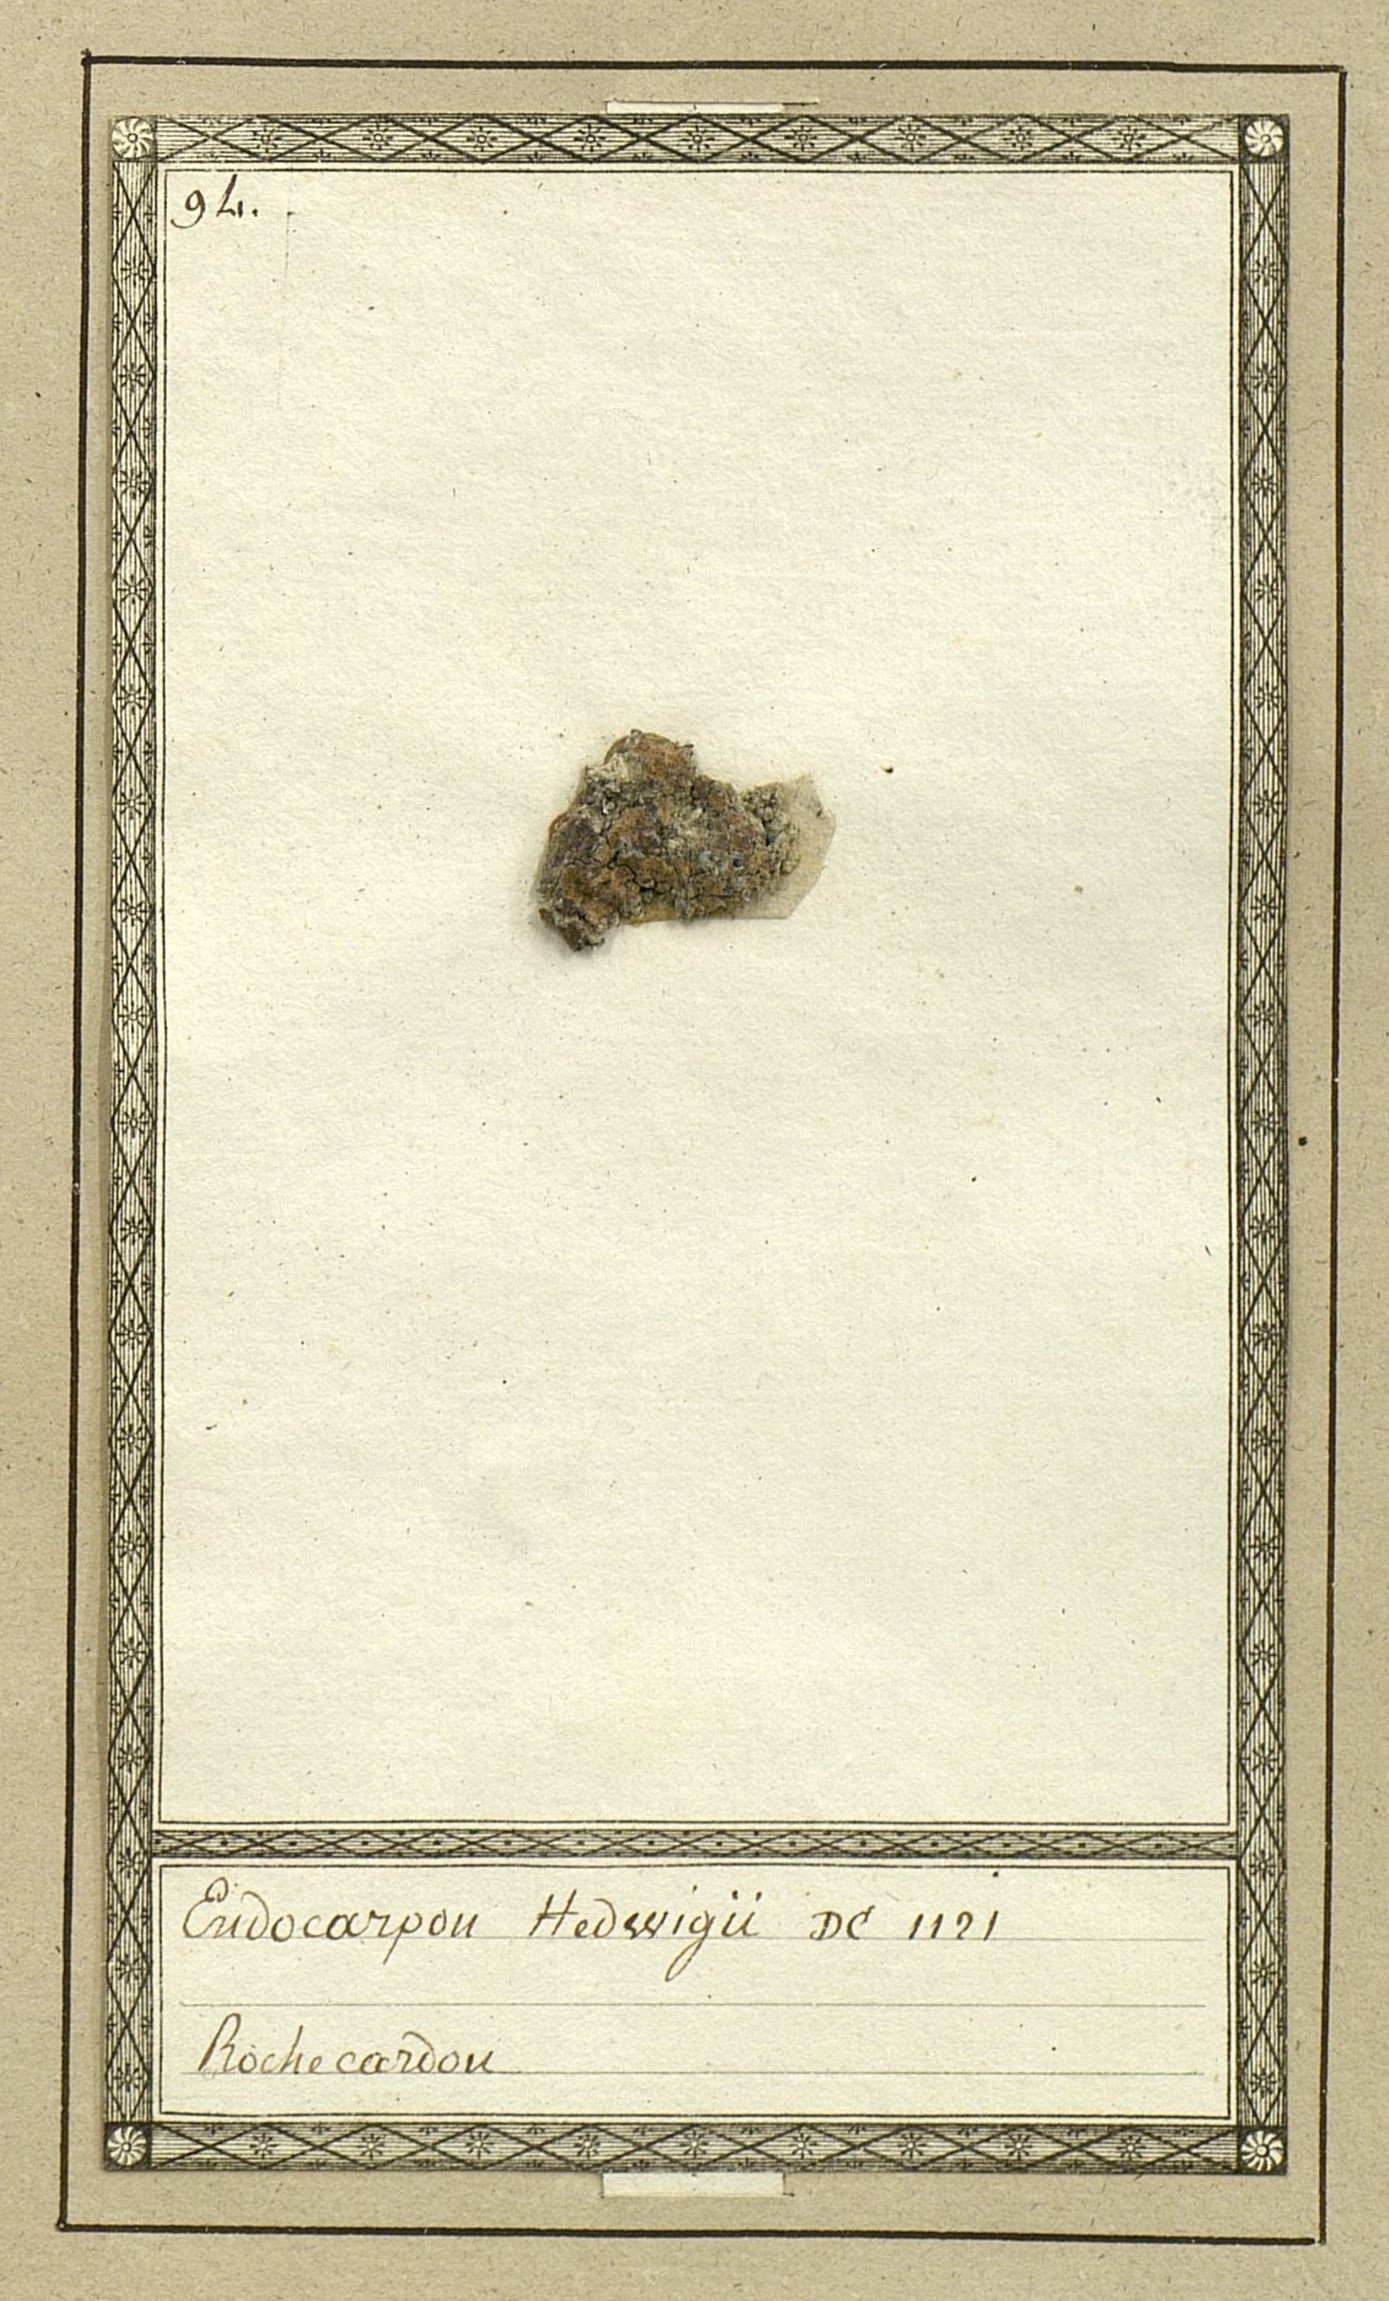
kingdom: Fungi
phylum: Ascomycota
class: Eurotiomycetes
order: Verrucariales
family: Verrucariaceae
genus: Endocarpon
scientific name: Endocarpon pusillum
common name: Scaly stippled lichen
